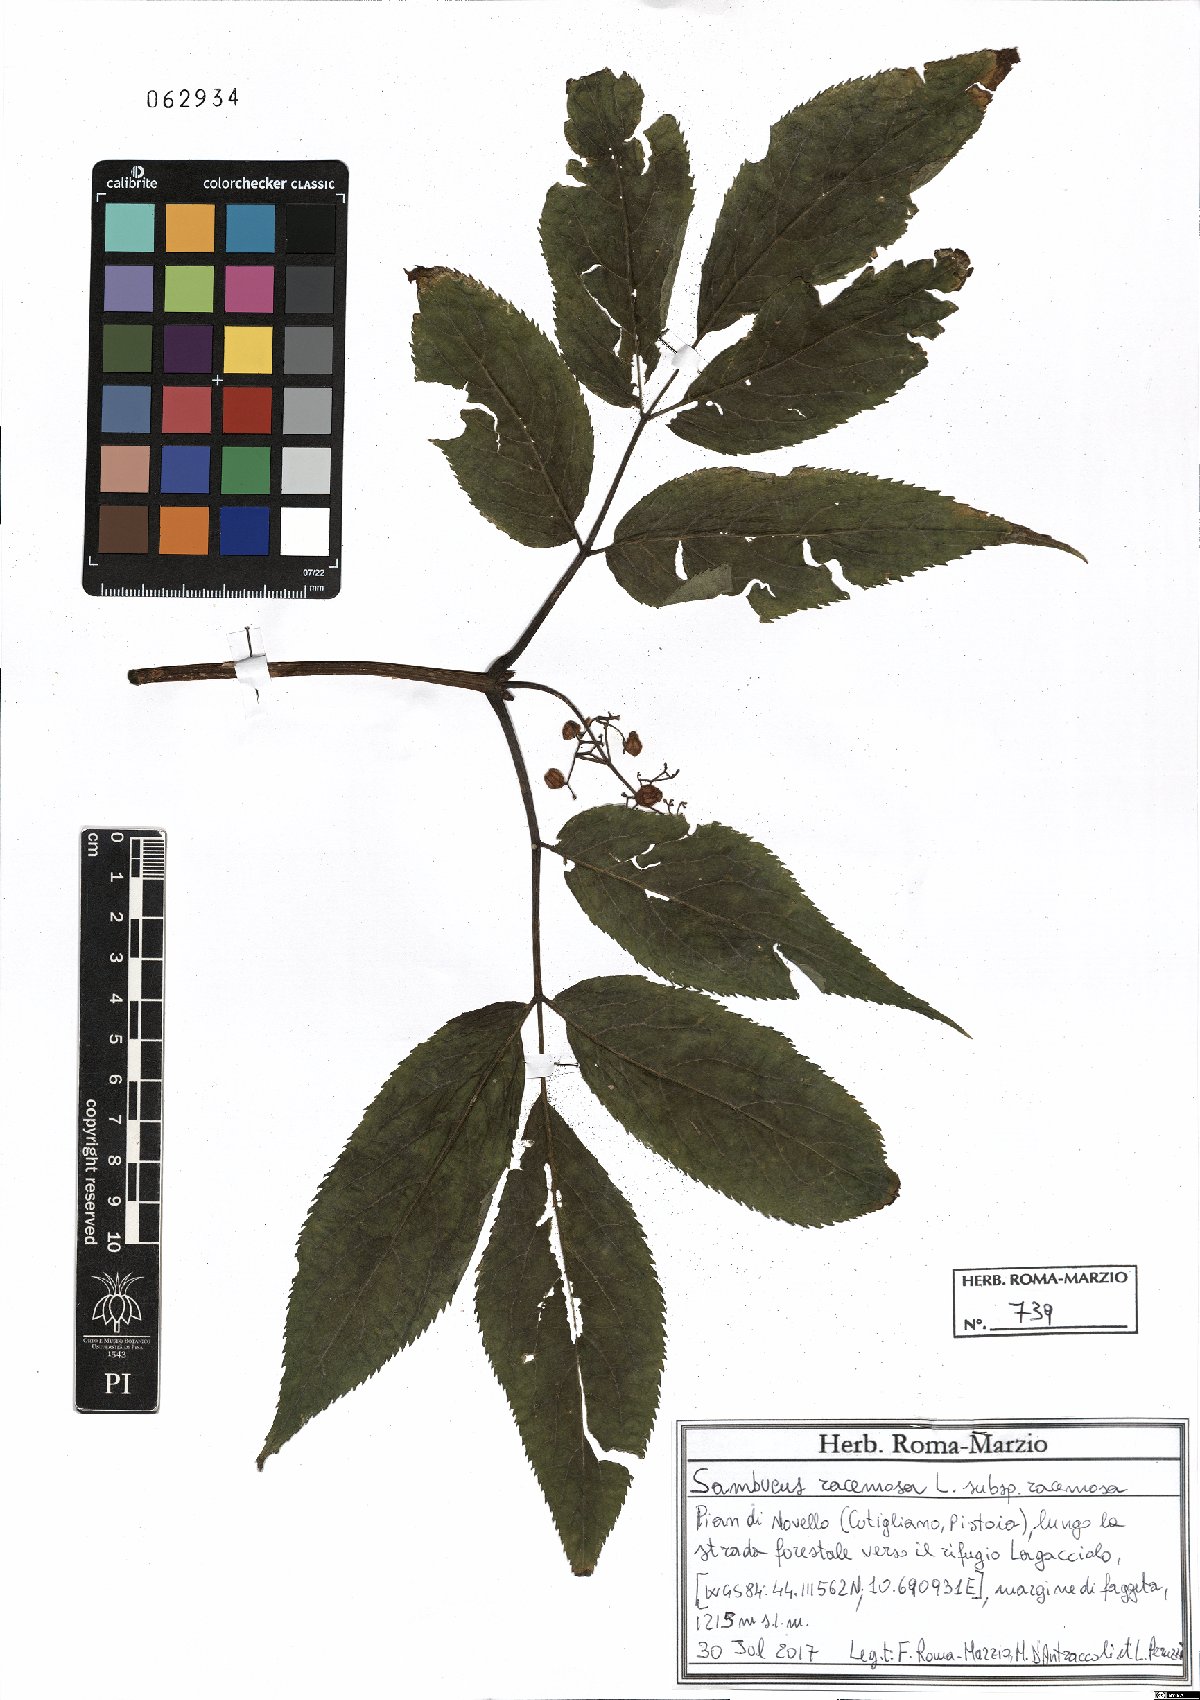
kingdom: Plantae
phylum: Tracheophyta
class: Magnoliopsida
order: Dipsacales
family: Viburnaceae
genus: Sambucus
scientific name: Sambucus racemosa
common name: Red-berried elder
